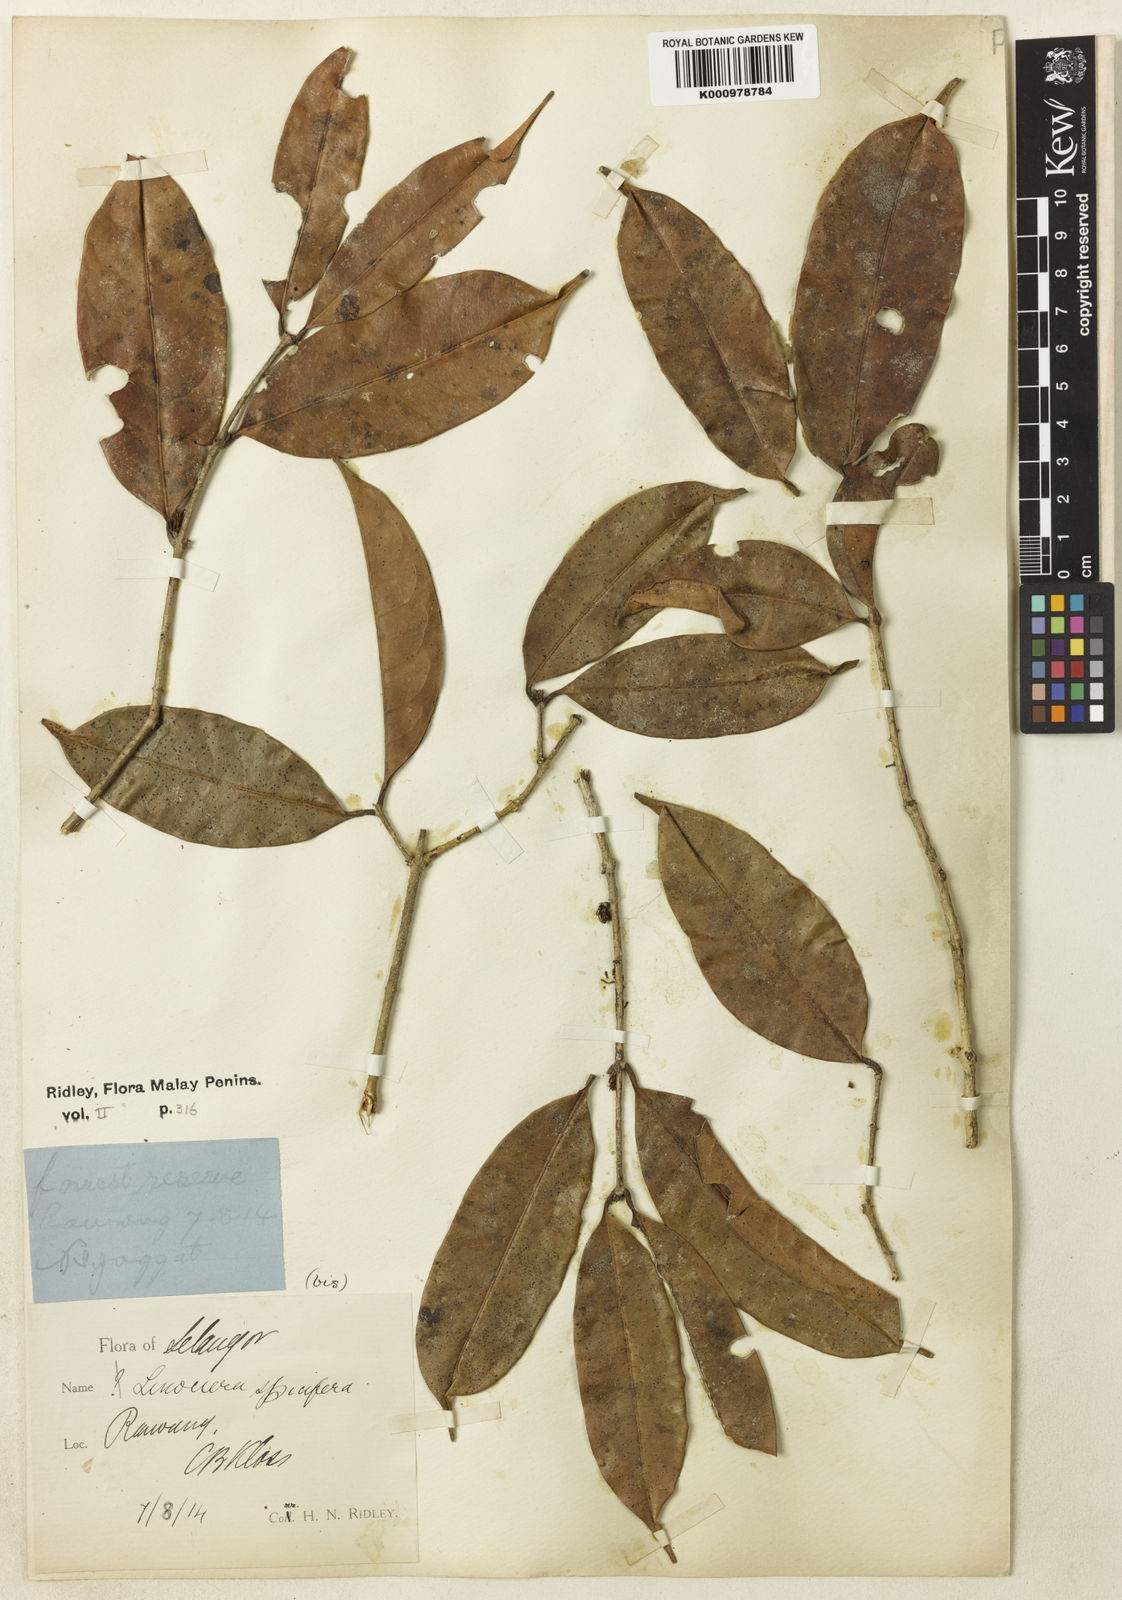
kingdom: Plantae
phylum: Tracheophyta
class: Magnoliopsida
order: Lamiales
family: Oleaceae
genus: Chionanthus
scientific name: Chionanthus
